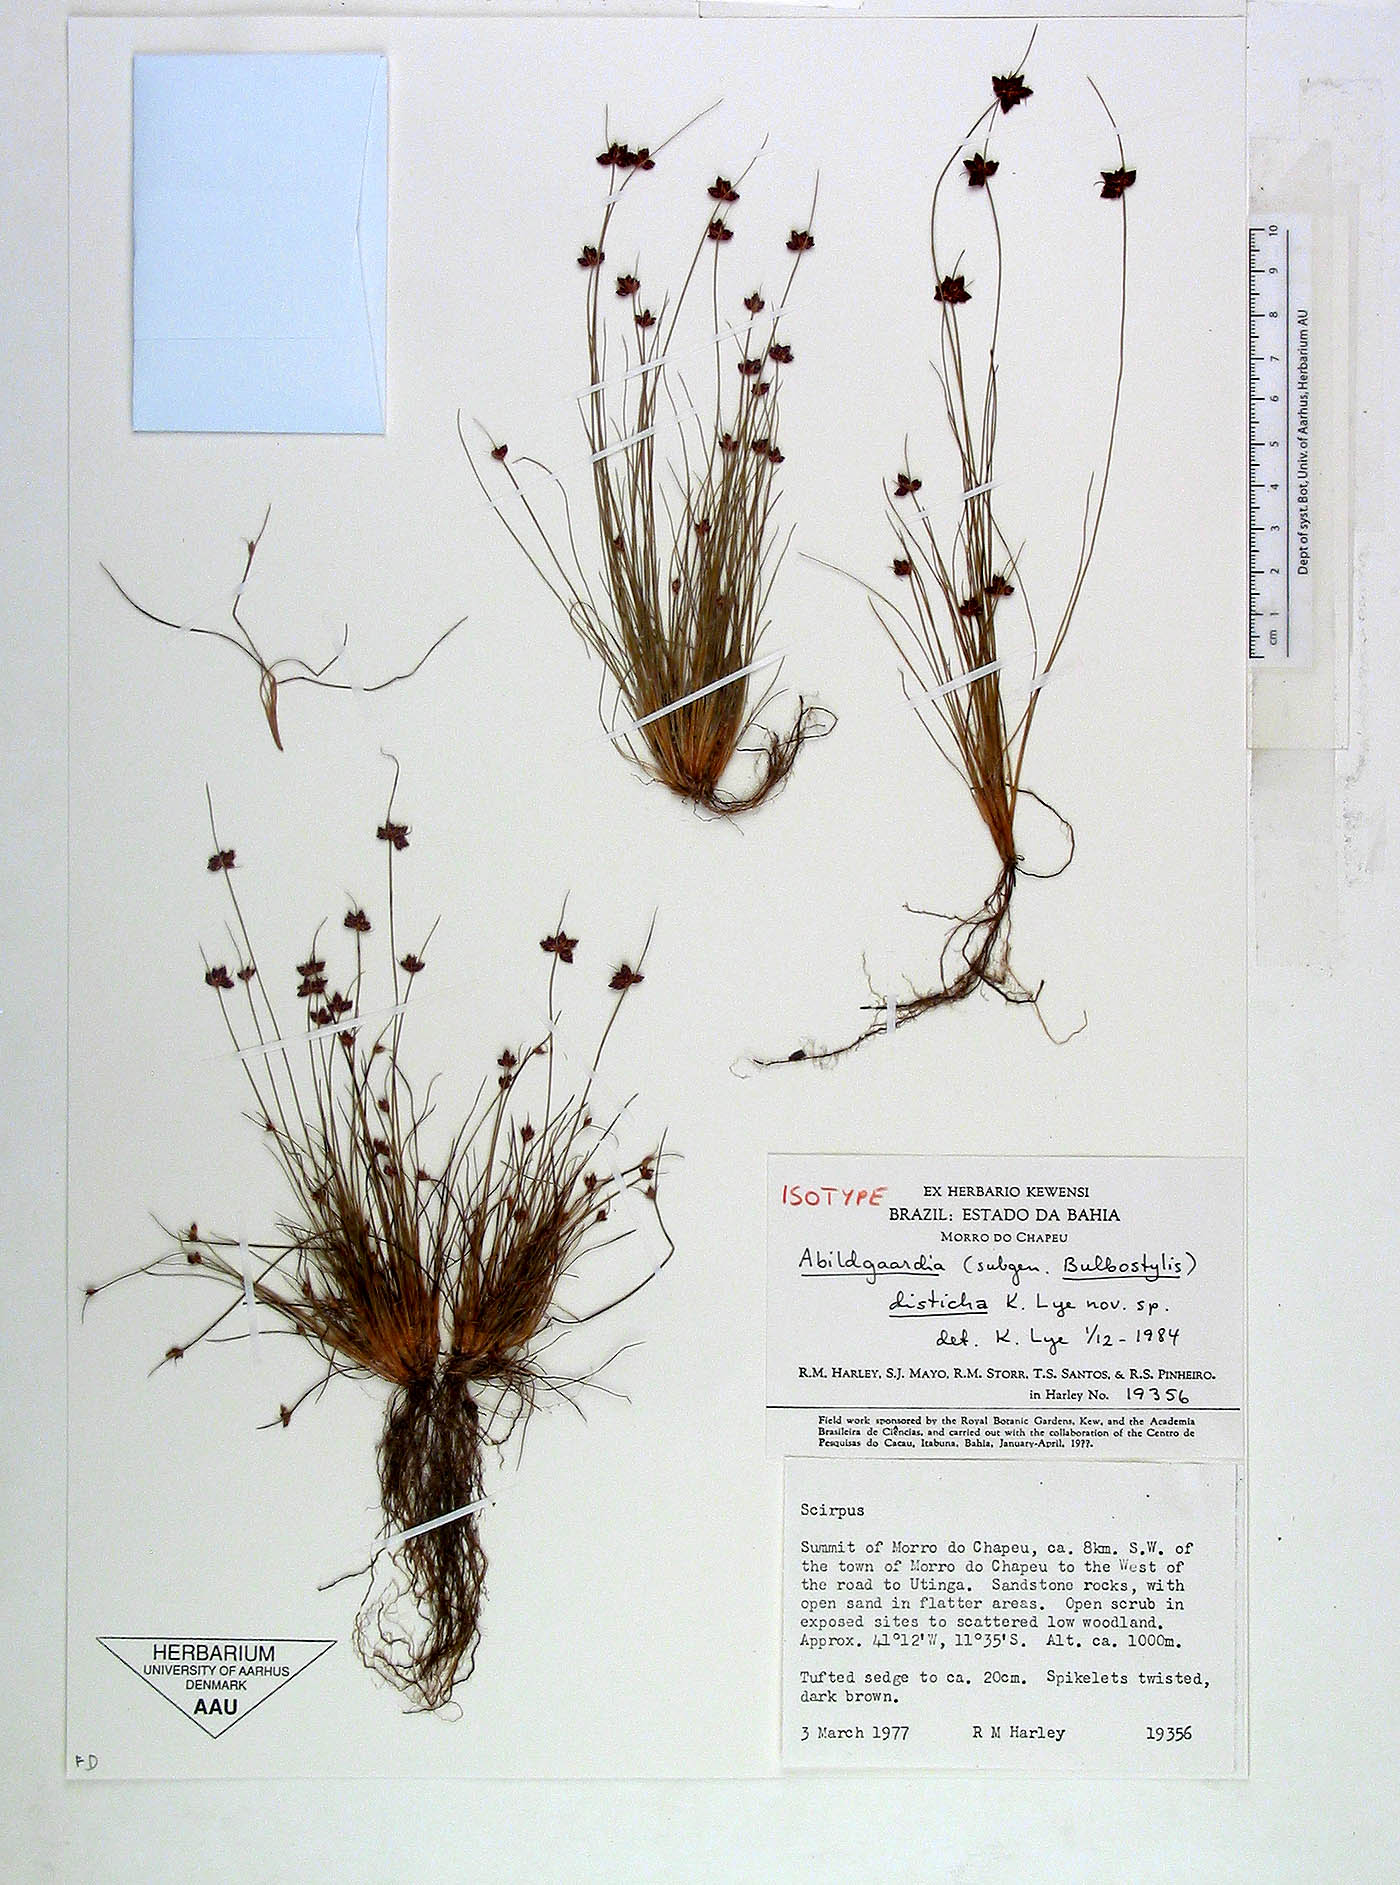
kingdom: Plantae
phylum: Tracheophyta
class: Liliopsida
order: Poales
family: Cyperaceae
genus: Bulbostylis
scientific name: Bulbostylis distichoides
